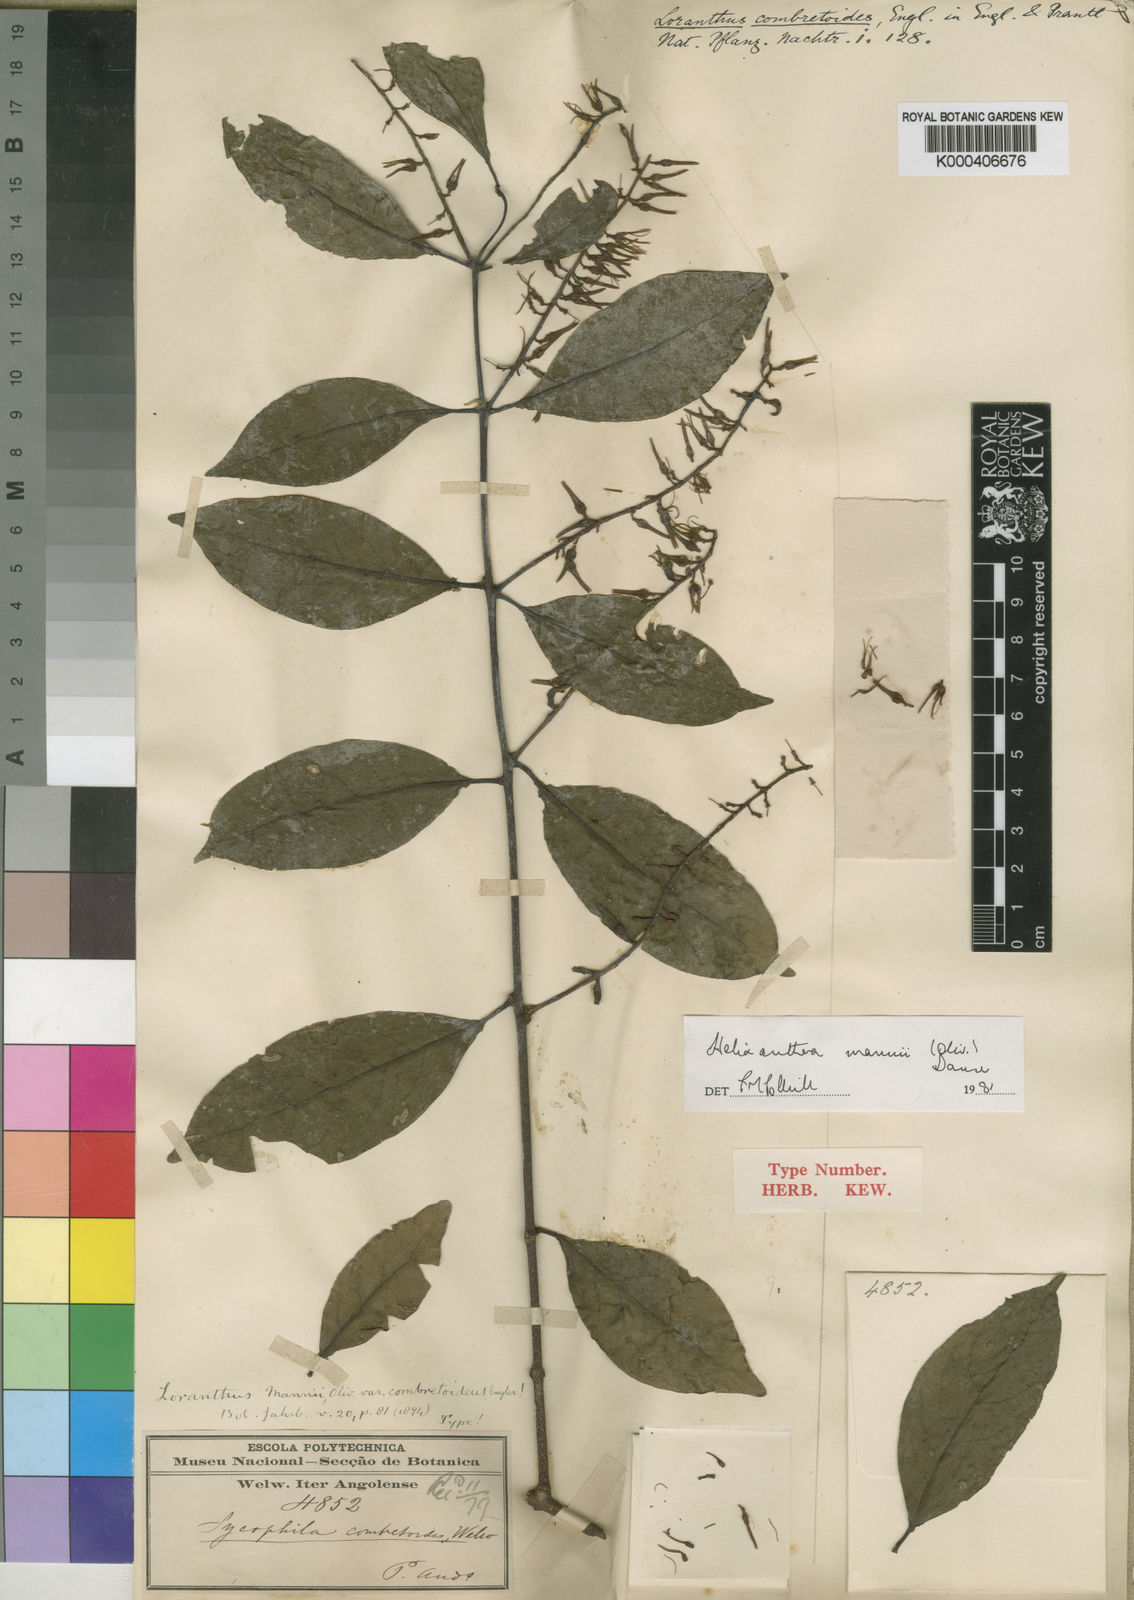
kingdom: Plantae
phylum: Tracheophyta
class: Magnoliopsida
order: Santalales
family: Loranthaceae
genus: Helixanthera
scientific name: Helixanthera mannii
